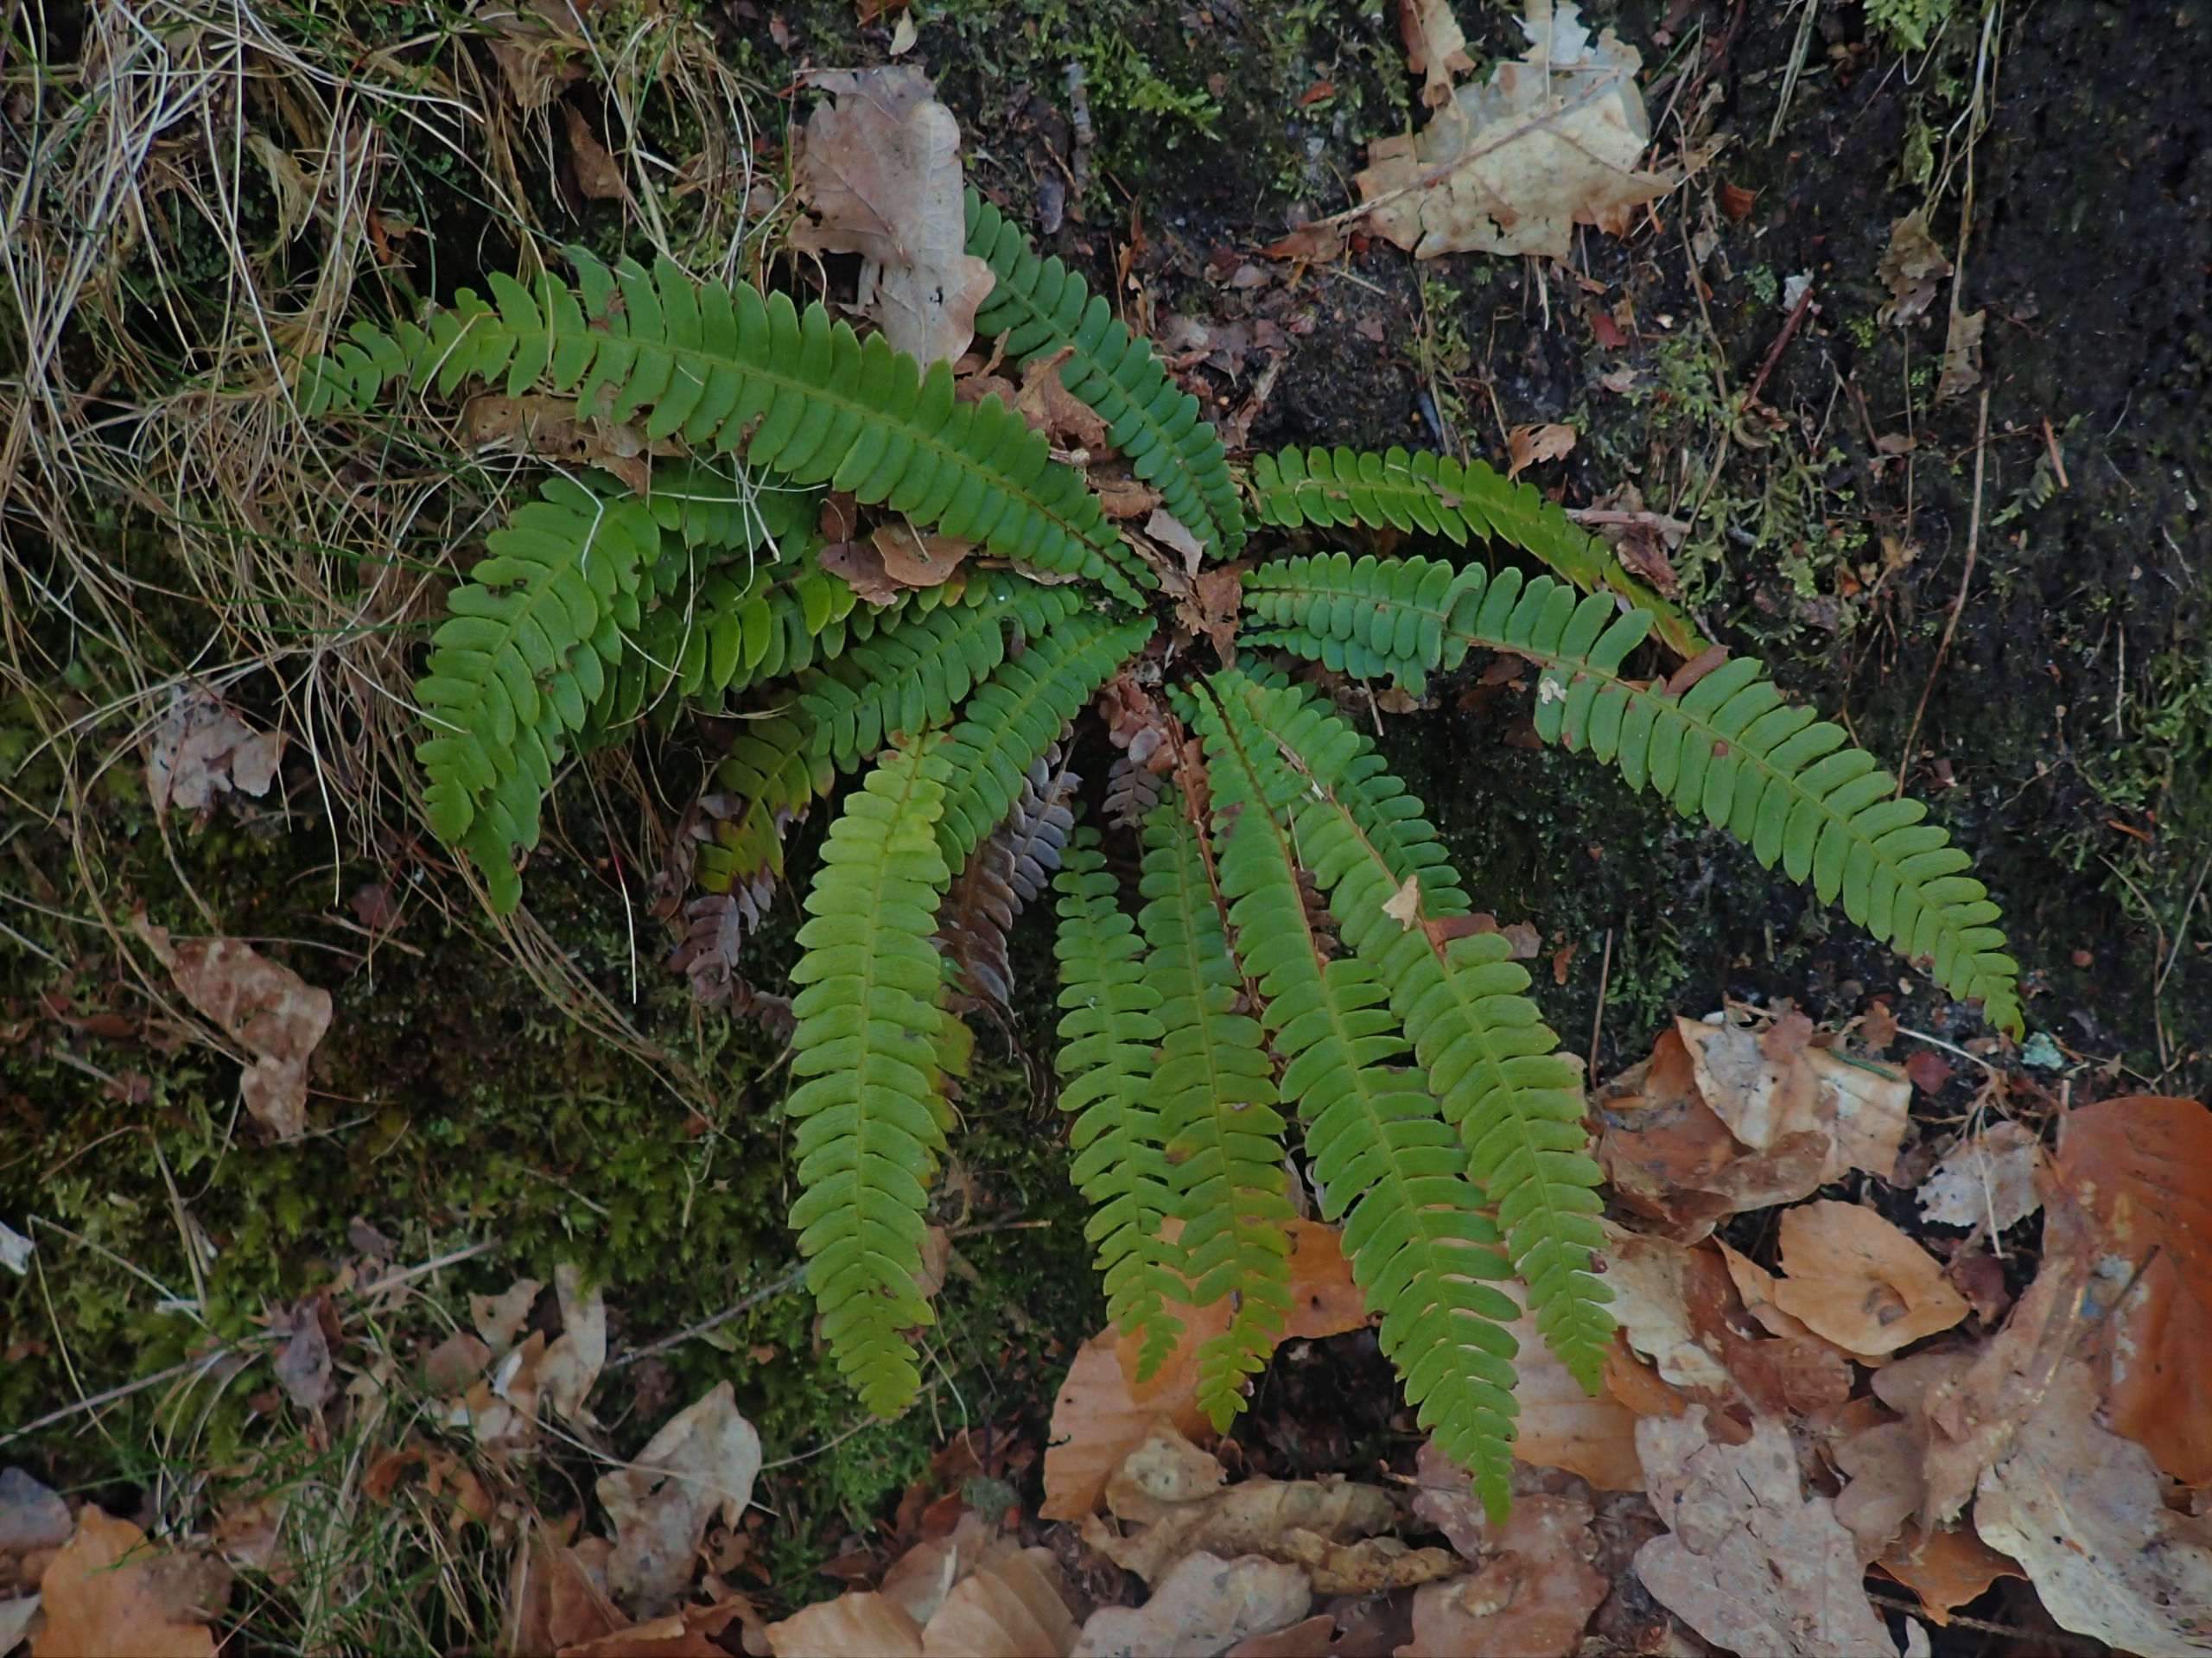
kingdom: Plantae
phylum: Tracheophyta
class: Polypodiopsida
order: Polypodiales
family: Blechnaceae
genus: Struthiopteris
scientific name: Struthiopteris spicant
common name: Kambregne
